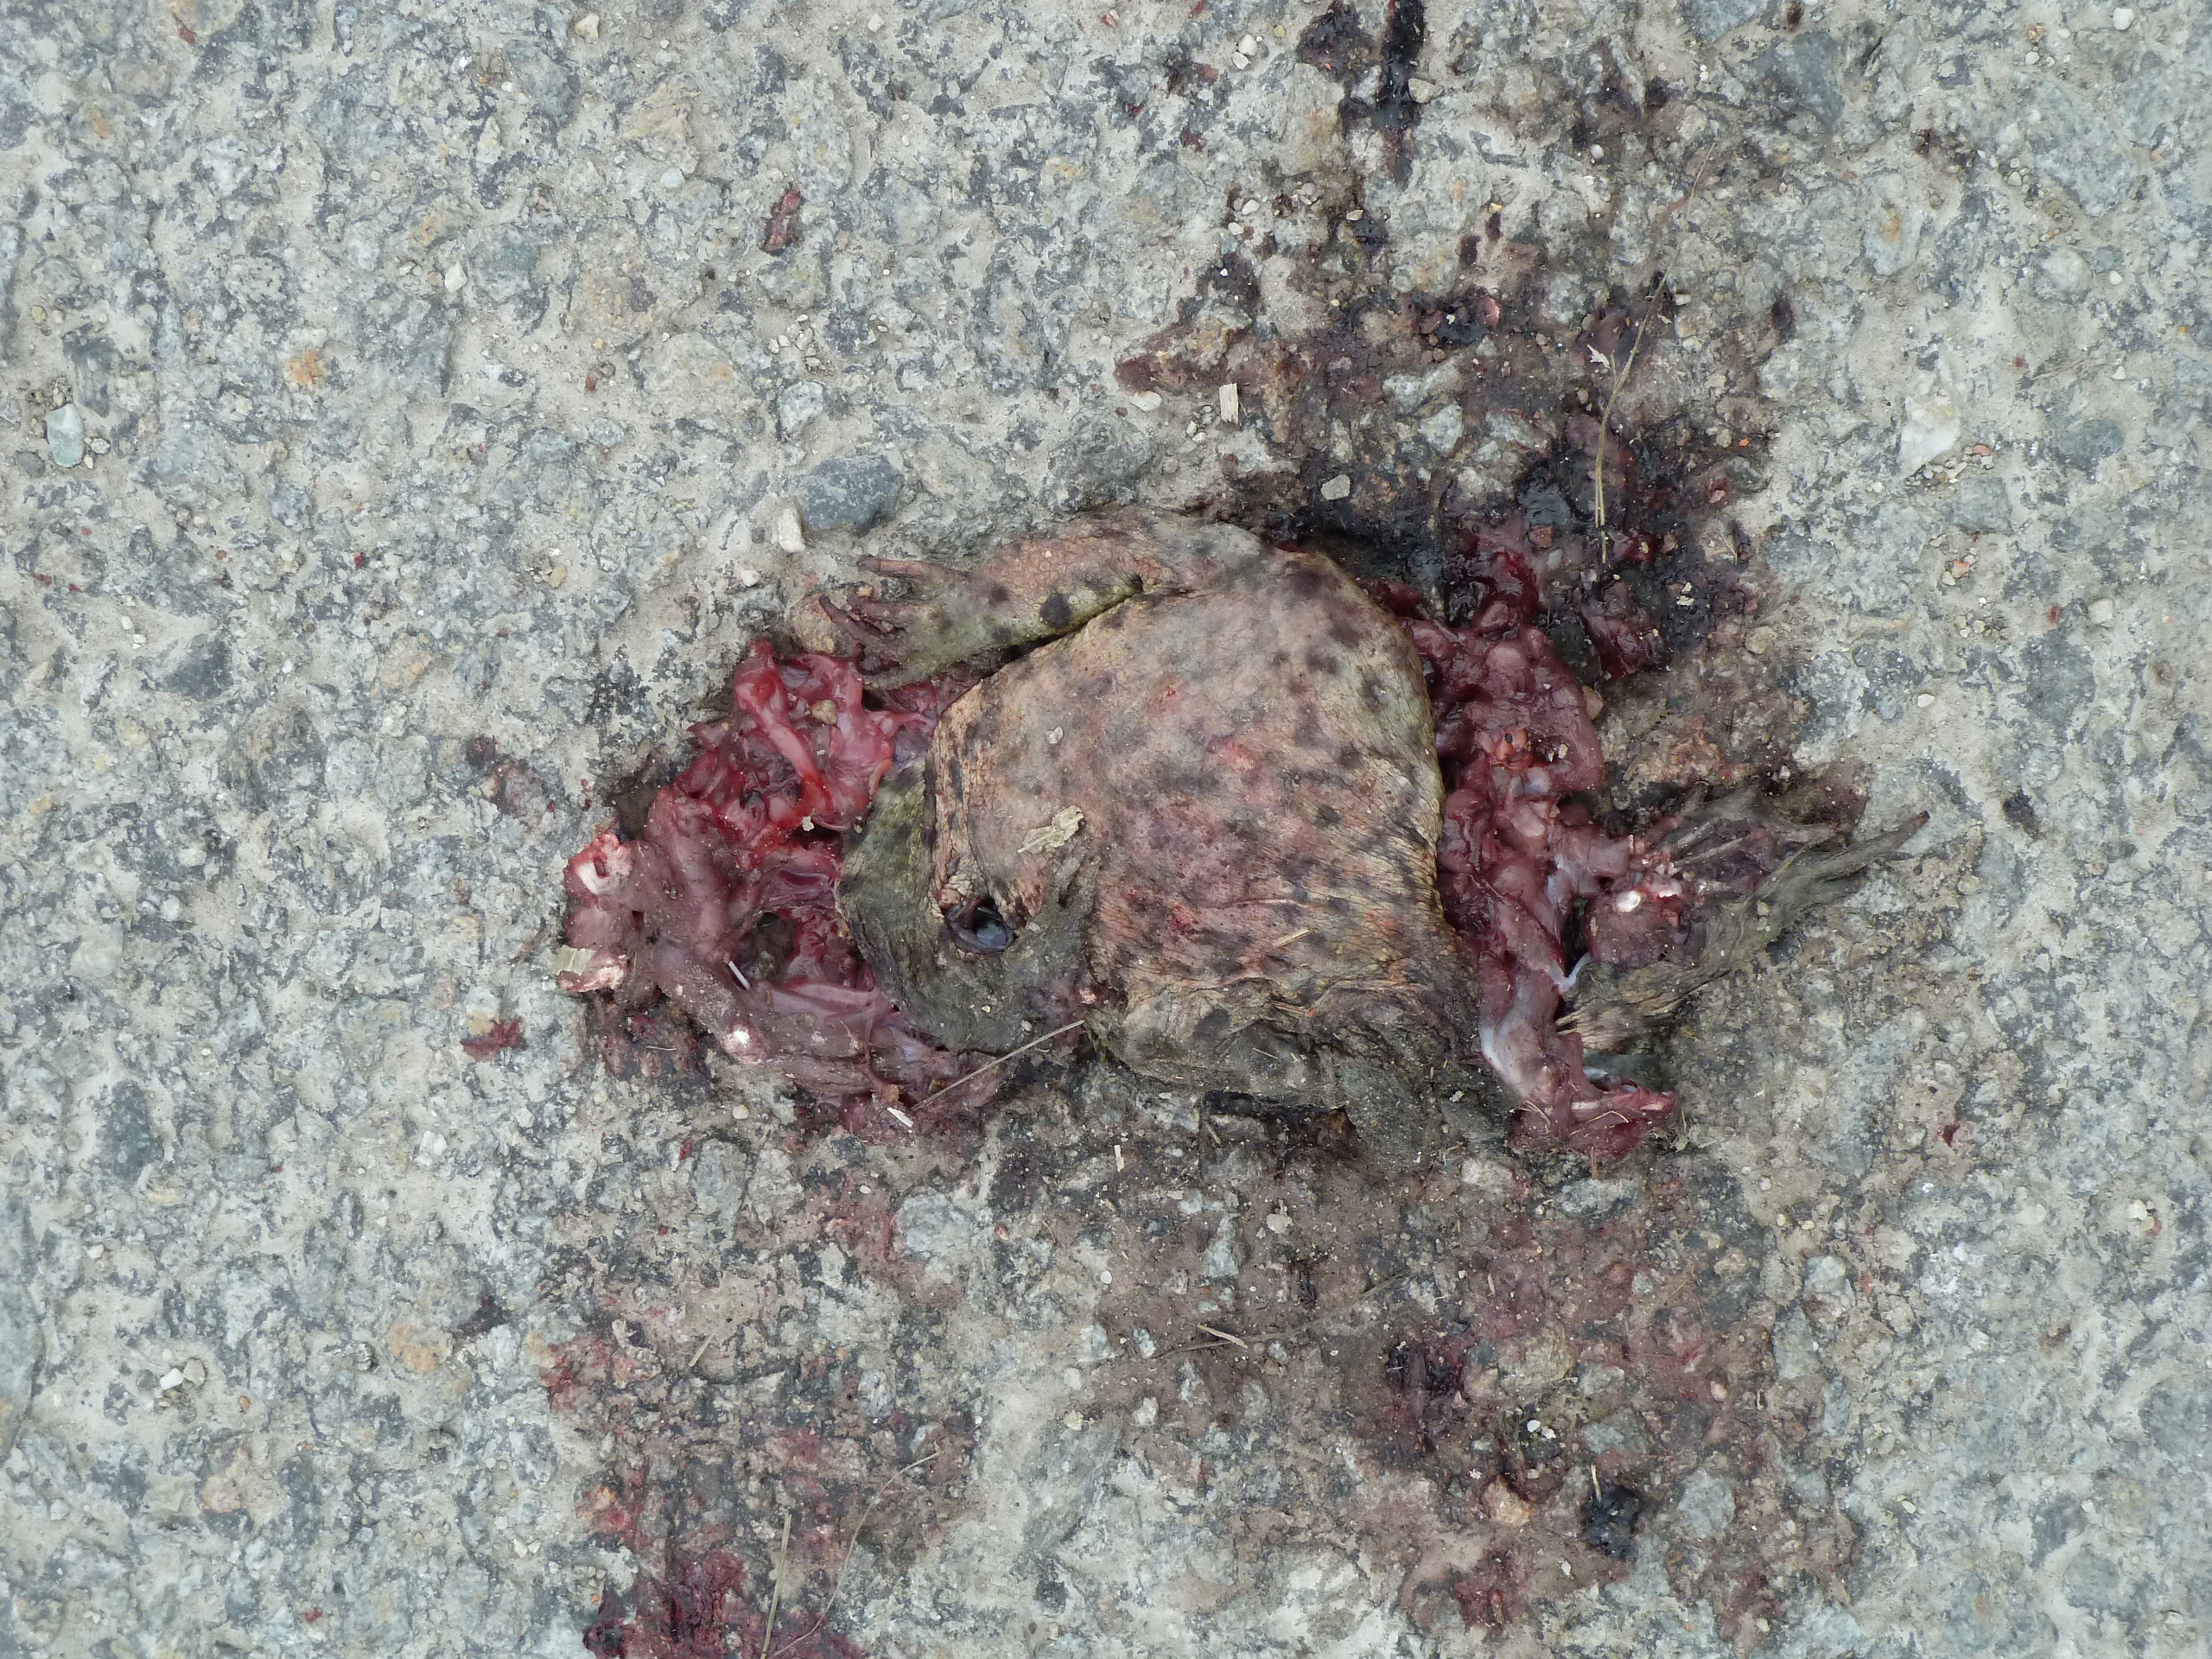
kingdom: Animalia
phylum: Chordata
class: Amphibia
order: Anura
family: Bufonidae
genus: Bufo
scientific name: Bufo bufo
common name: Common toad
